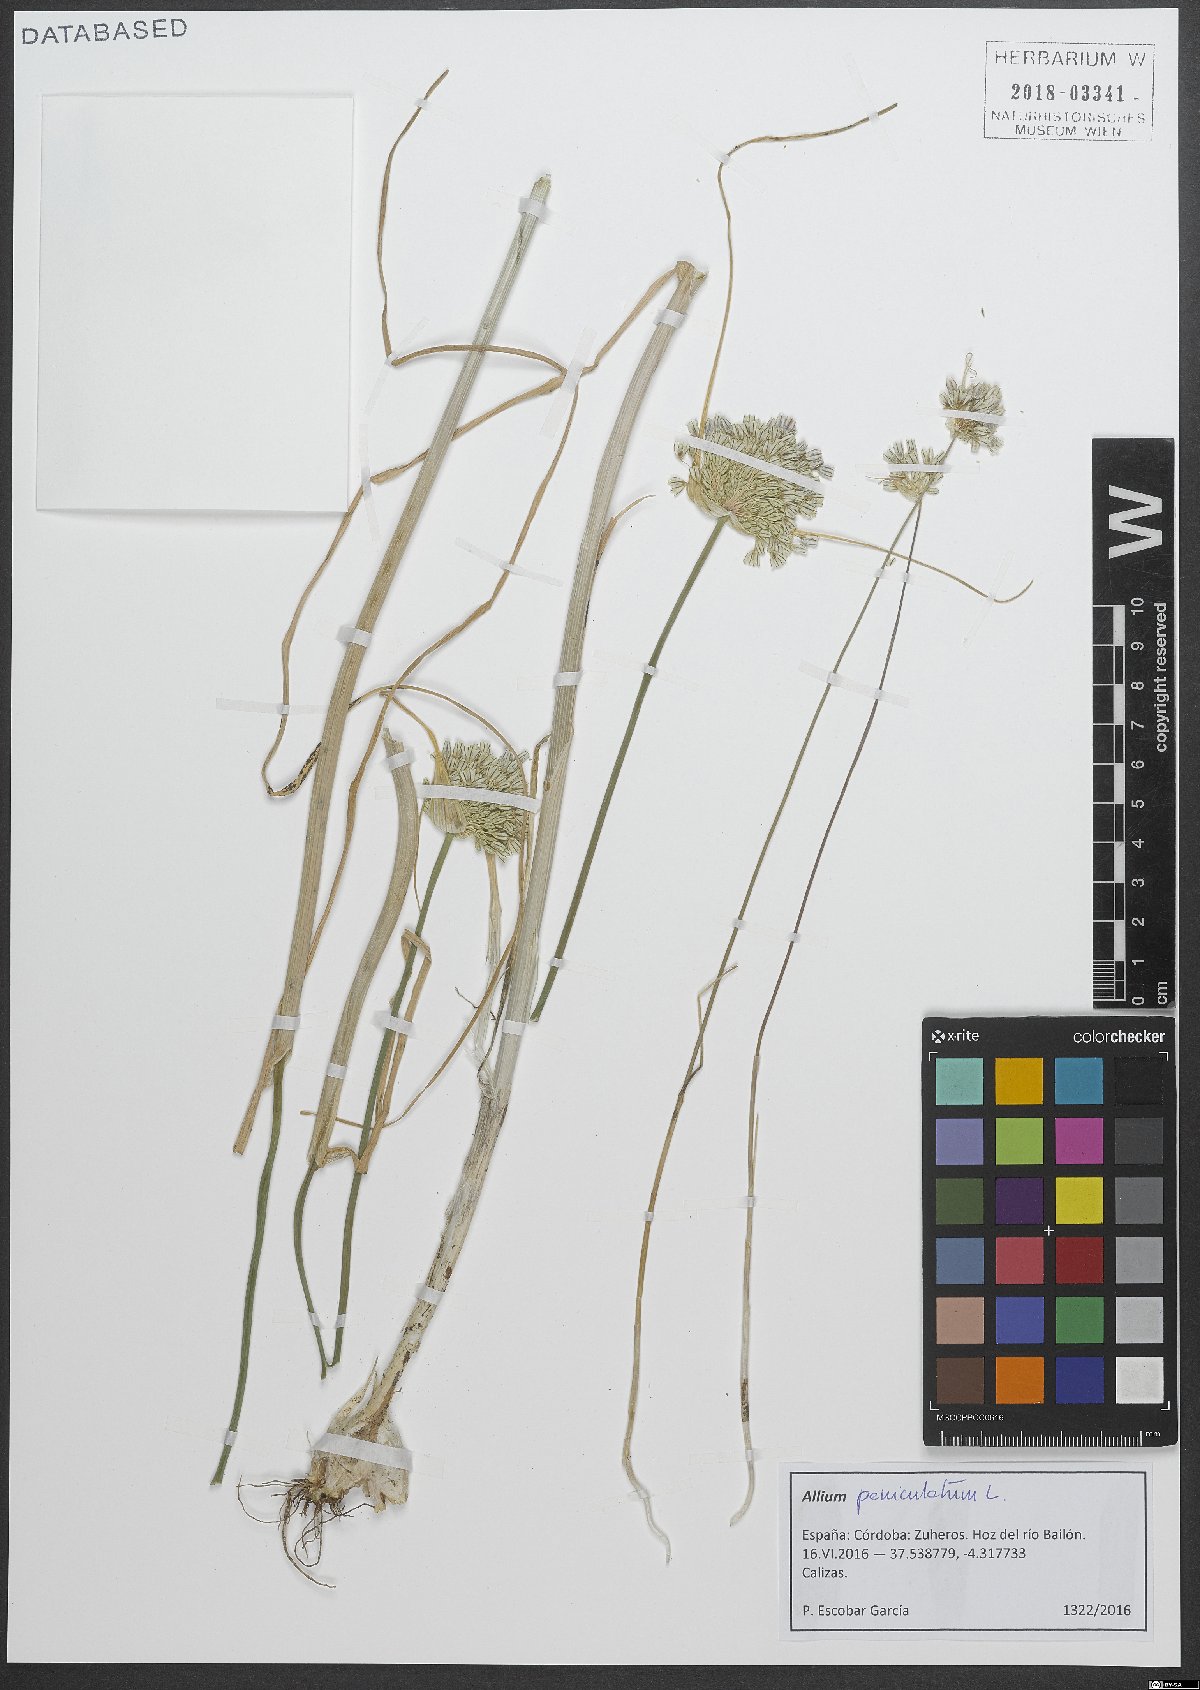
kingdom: Plantae
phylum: Tracheophyta
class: Liliopsida
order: Asparagales
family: Amaryllidaceae
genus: Allium
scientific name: Allium paniculatum
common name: Pale garlic
